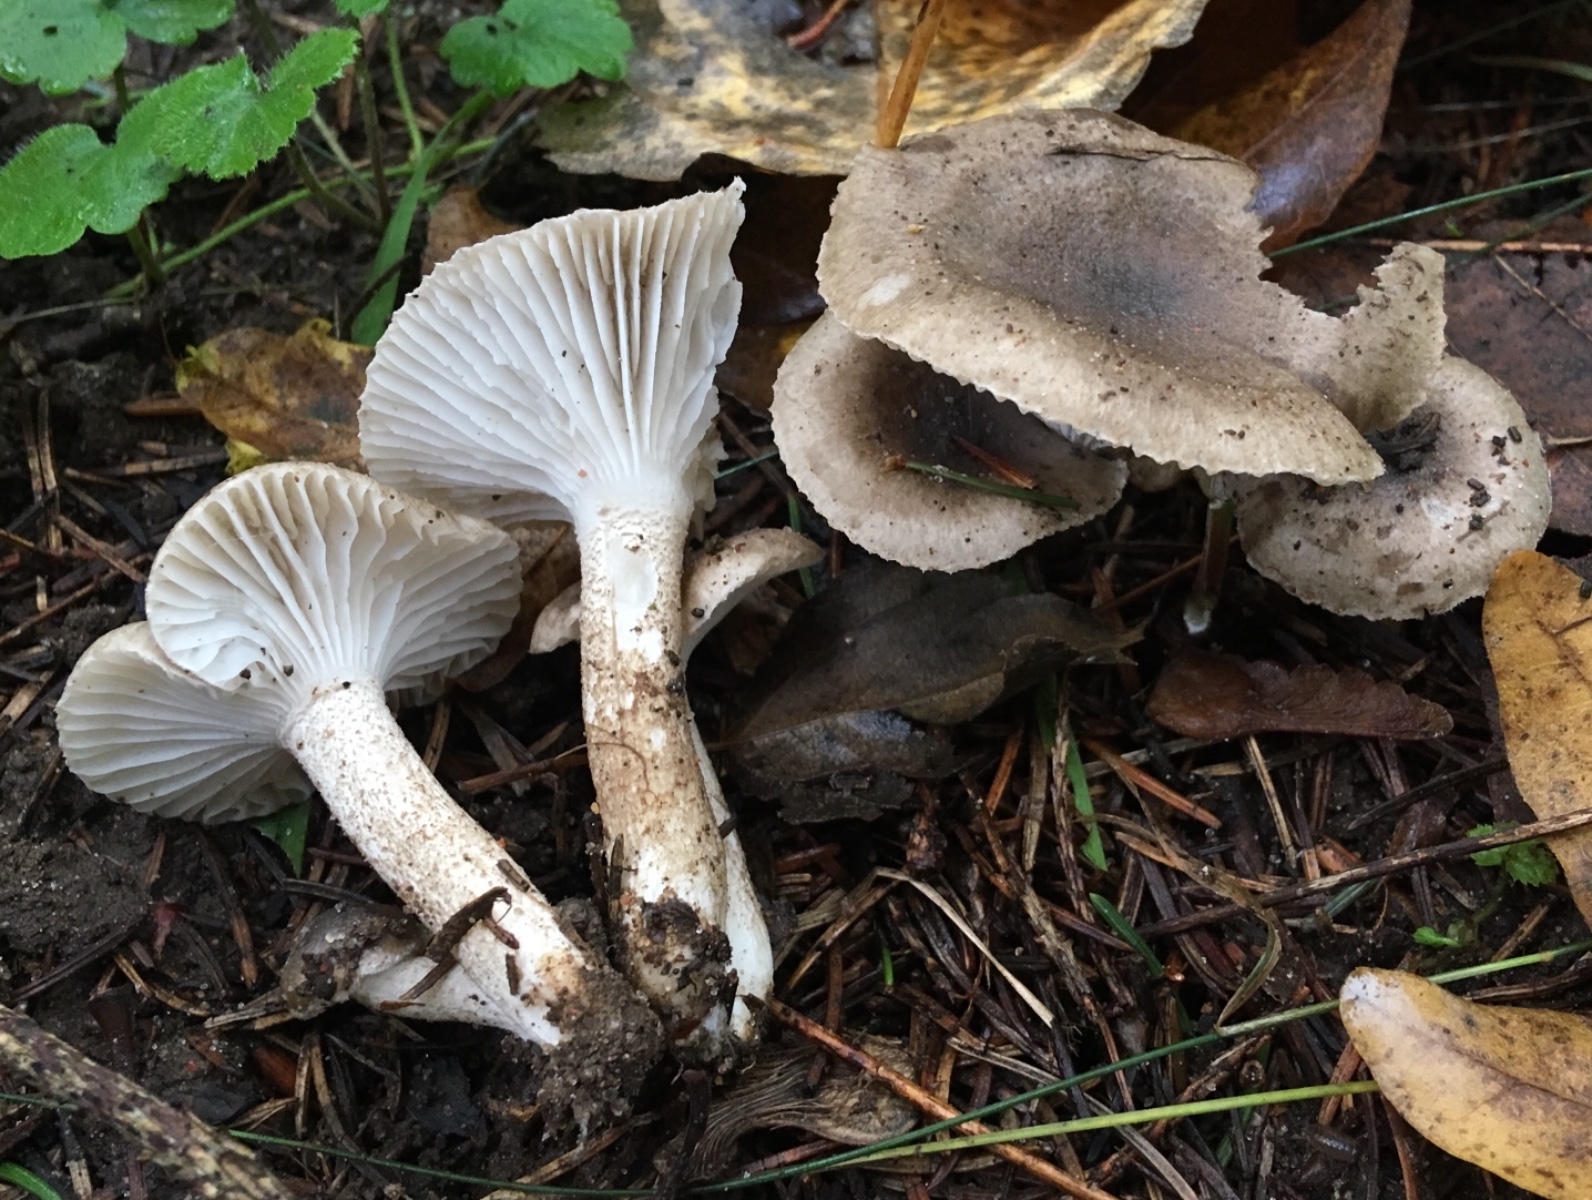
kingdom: Fungi
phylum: Basidiomycota
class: Agaricomycetes
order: Agaricales
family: Hygrophoraceae
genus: Hygrophorus
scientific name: Hygrophorus pustulatus
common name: mørkprikket sneglehat
